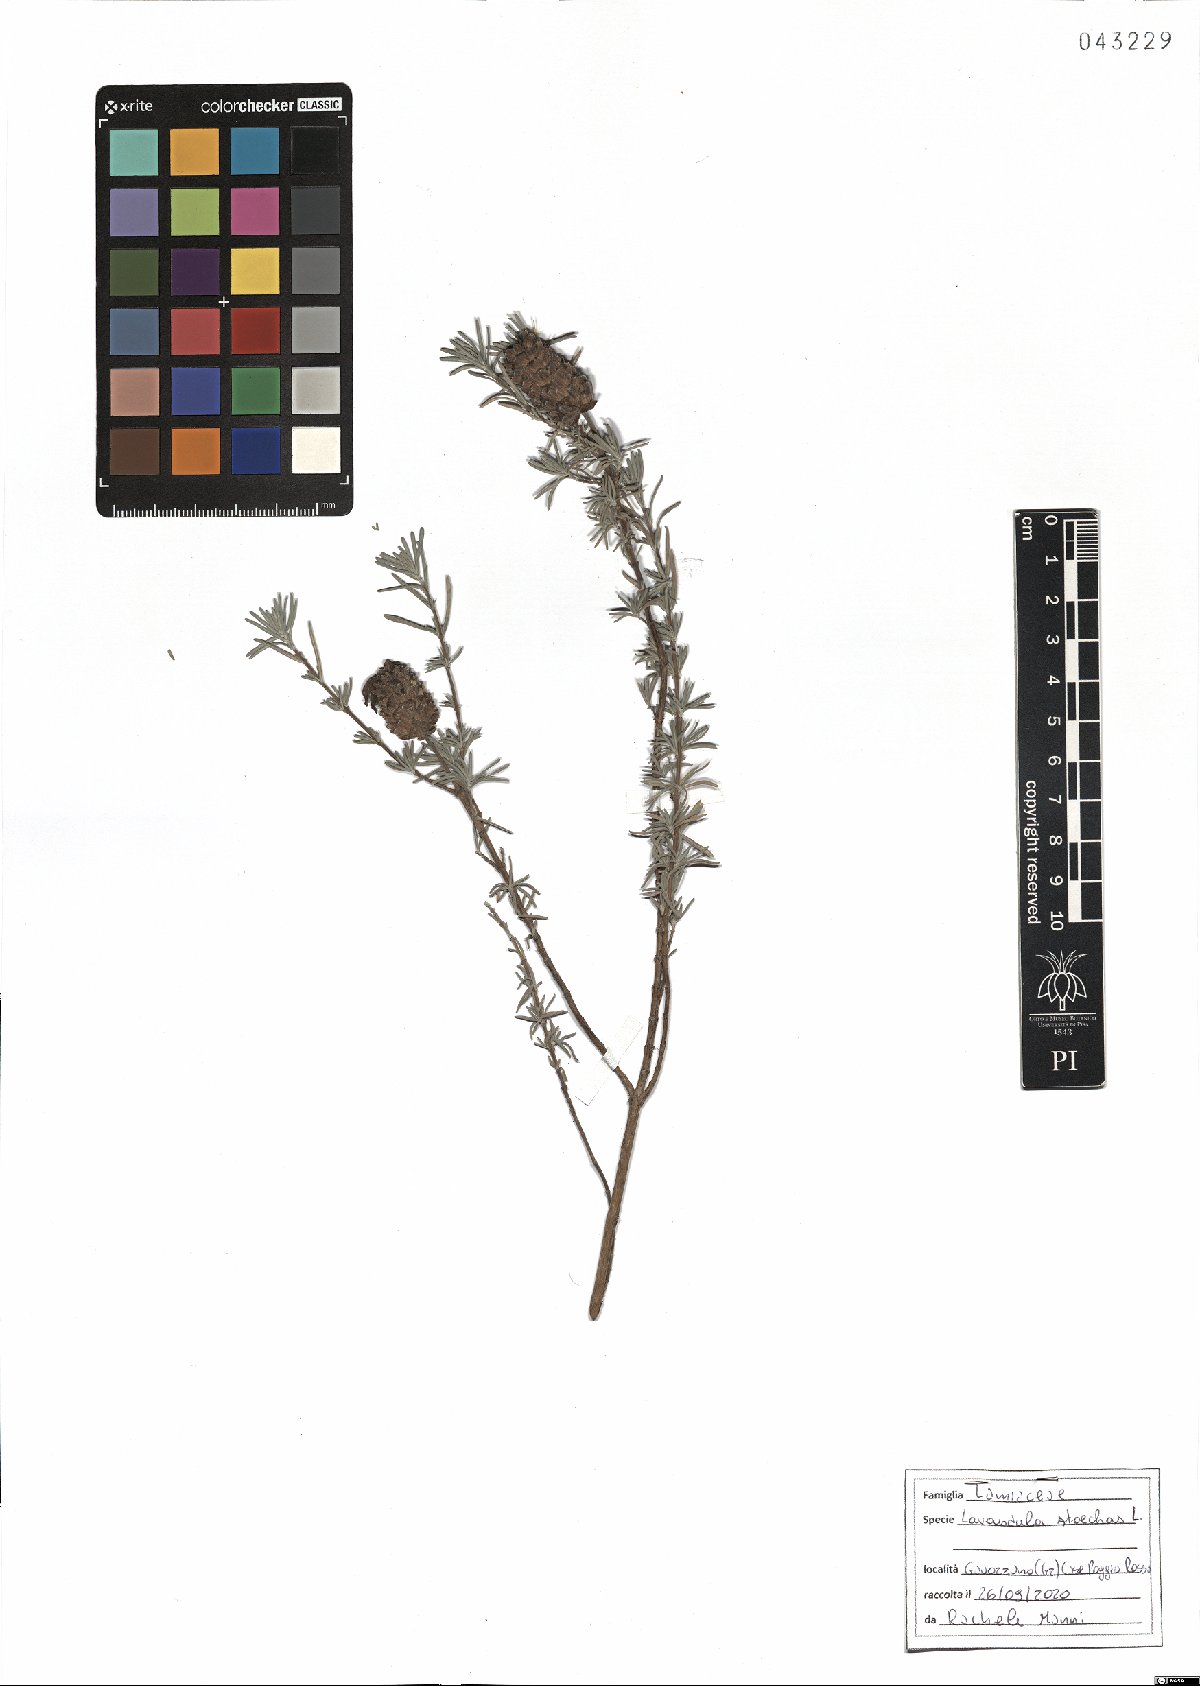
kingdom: Plantae
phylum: Tracheophyta
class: Magnoliopsida
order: Lamiales
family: Lamiaceae
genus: Lavandula
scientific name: Lavandula stoechas
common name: French lavender
